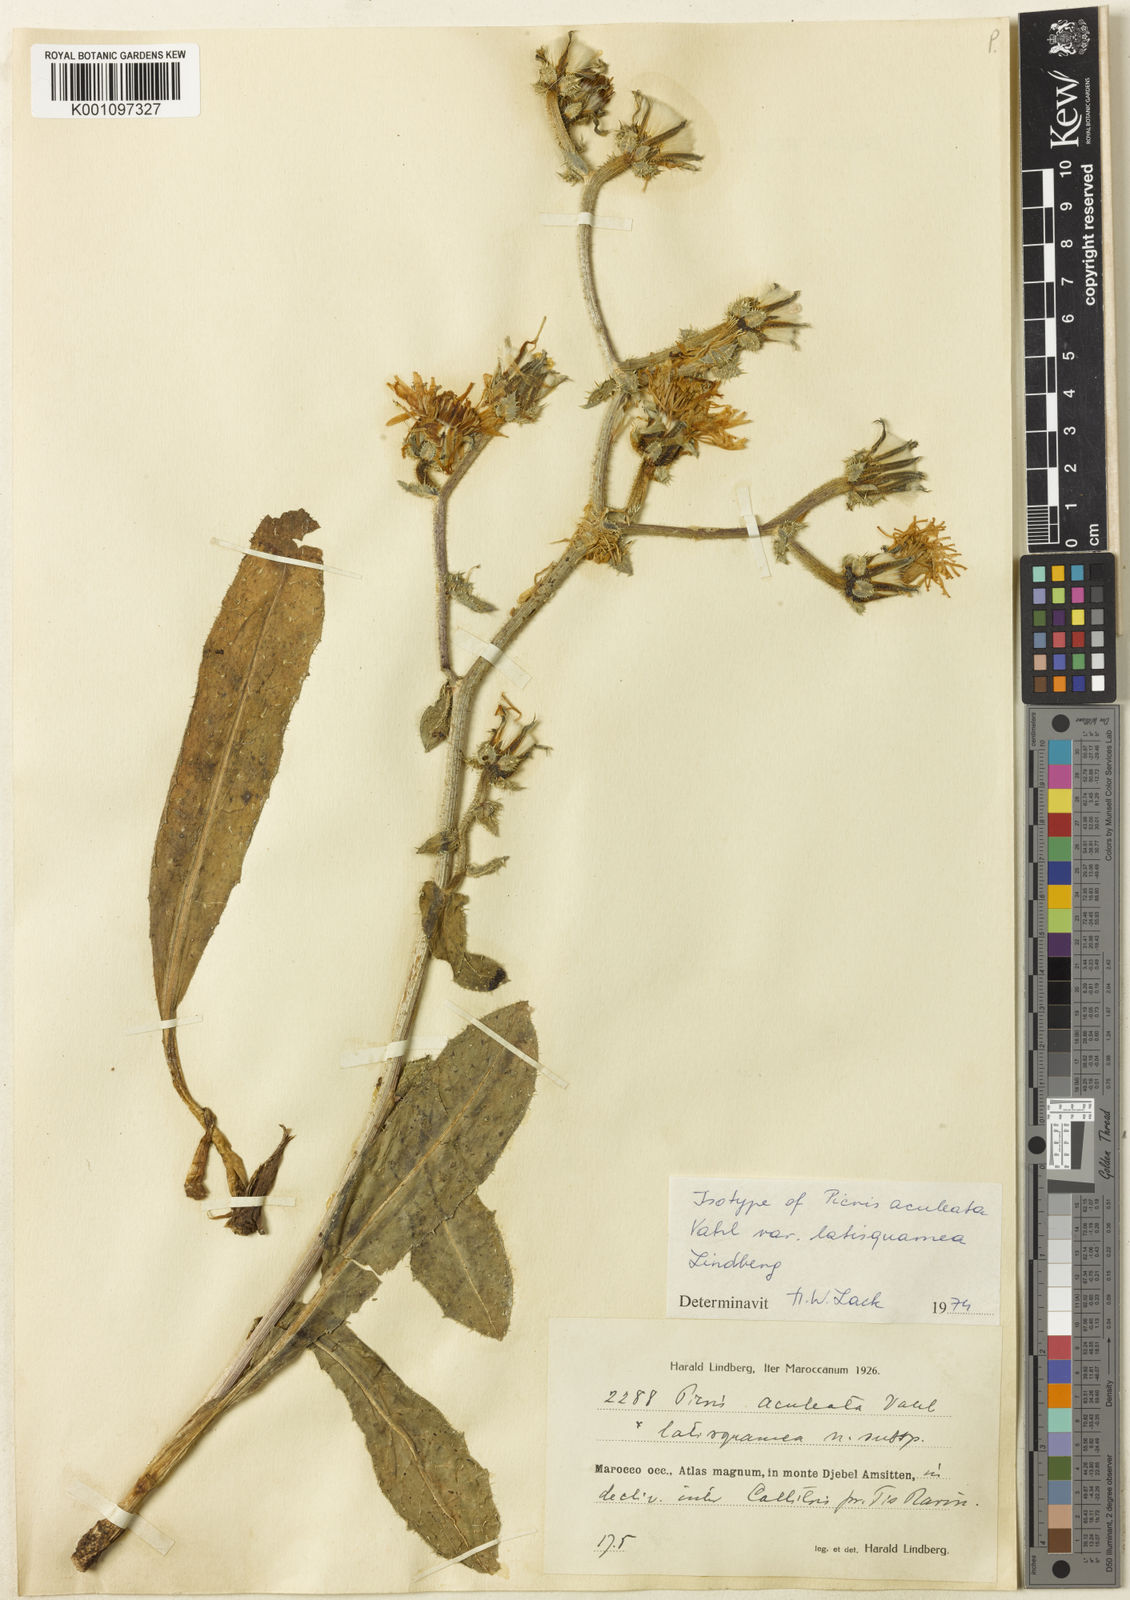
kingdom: Plantae
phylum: Tracheophyta
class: Magnoliopsida
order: Asterales
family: Asteraceae
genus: Helminthotheca
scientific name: Helminthotheca aculeata
